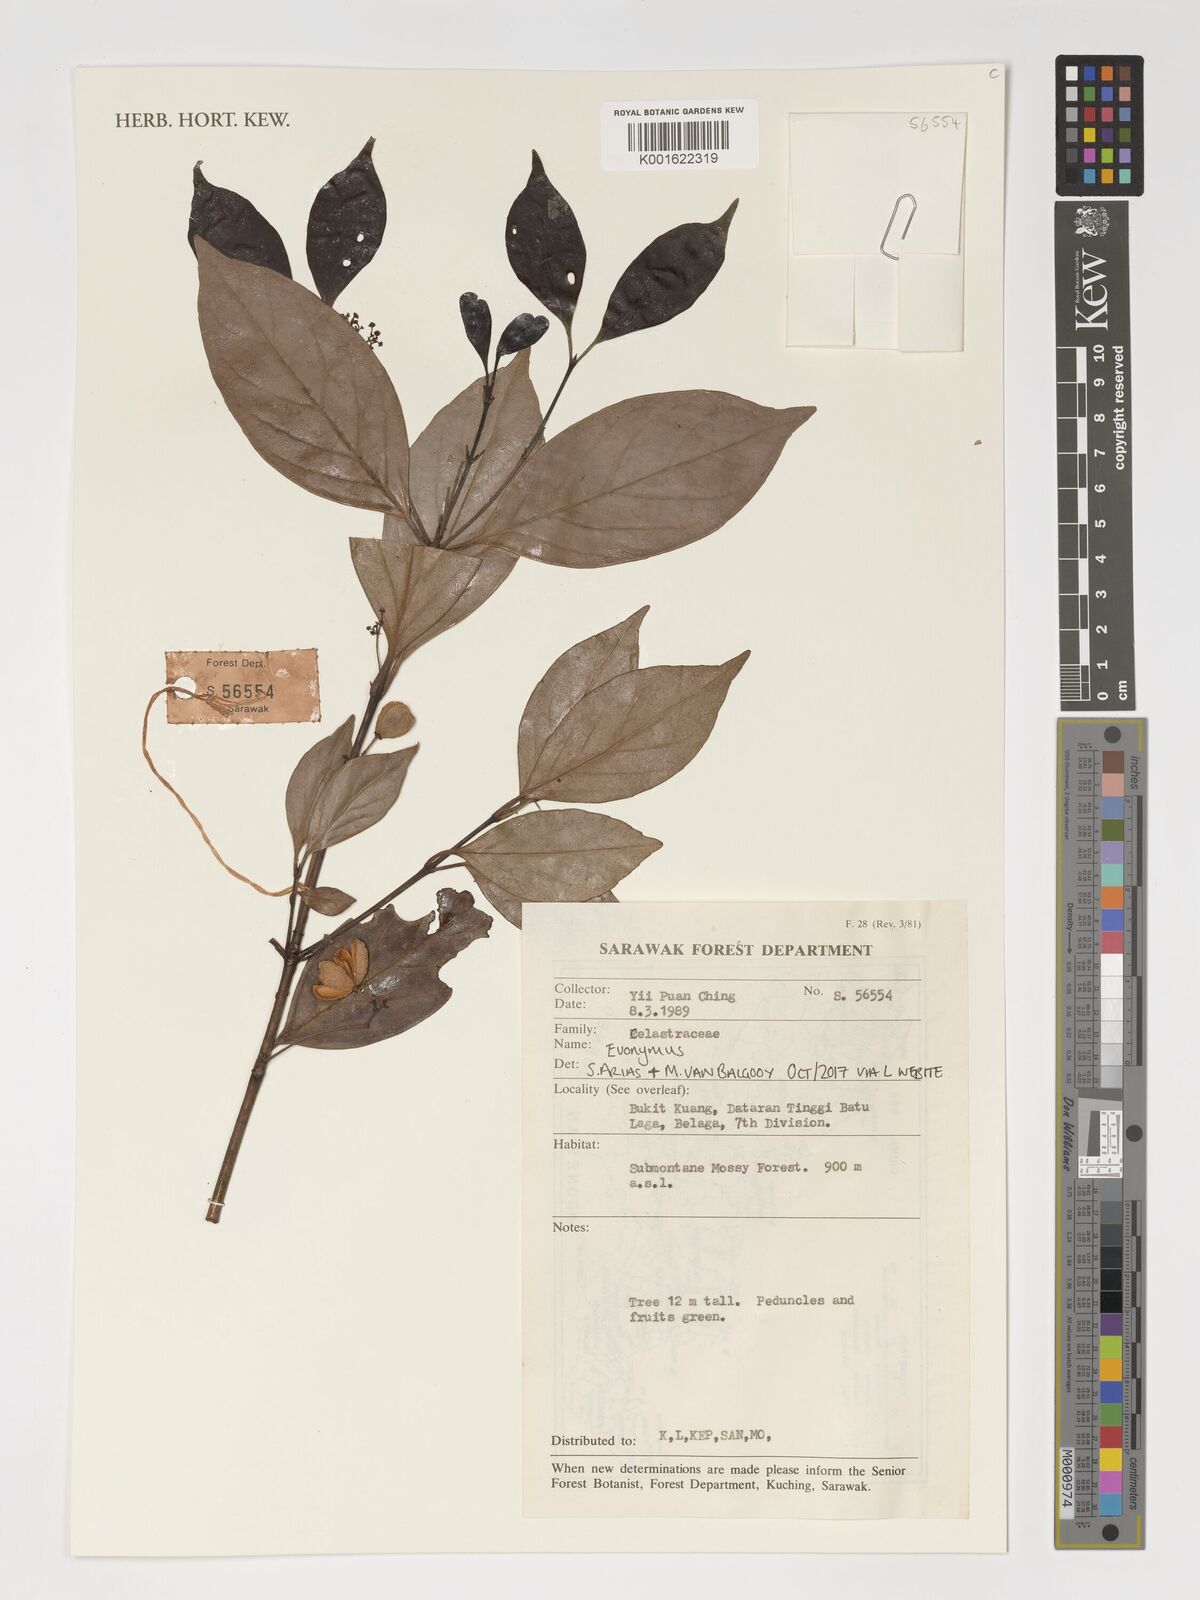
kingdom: Plantae
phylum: Tracheophyta
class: Magnoliopsida
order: Celastrales
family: Celastraceae
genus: Euonymus
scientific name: Euonymus
